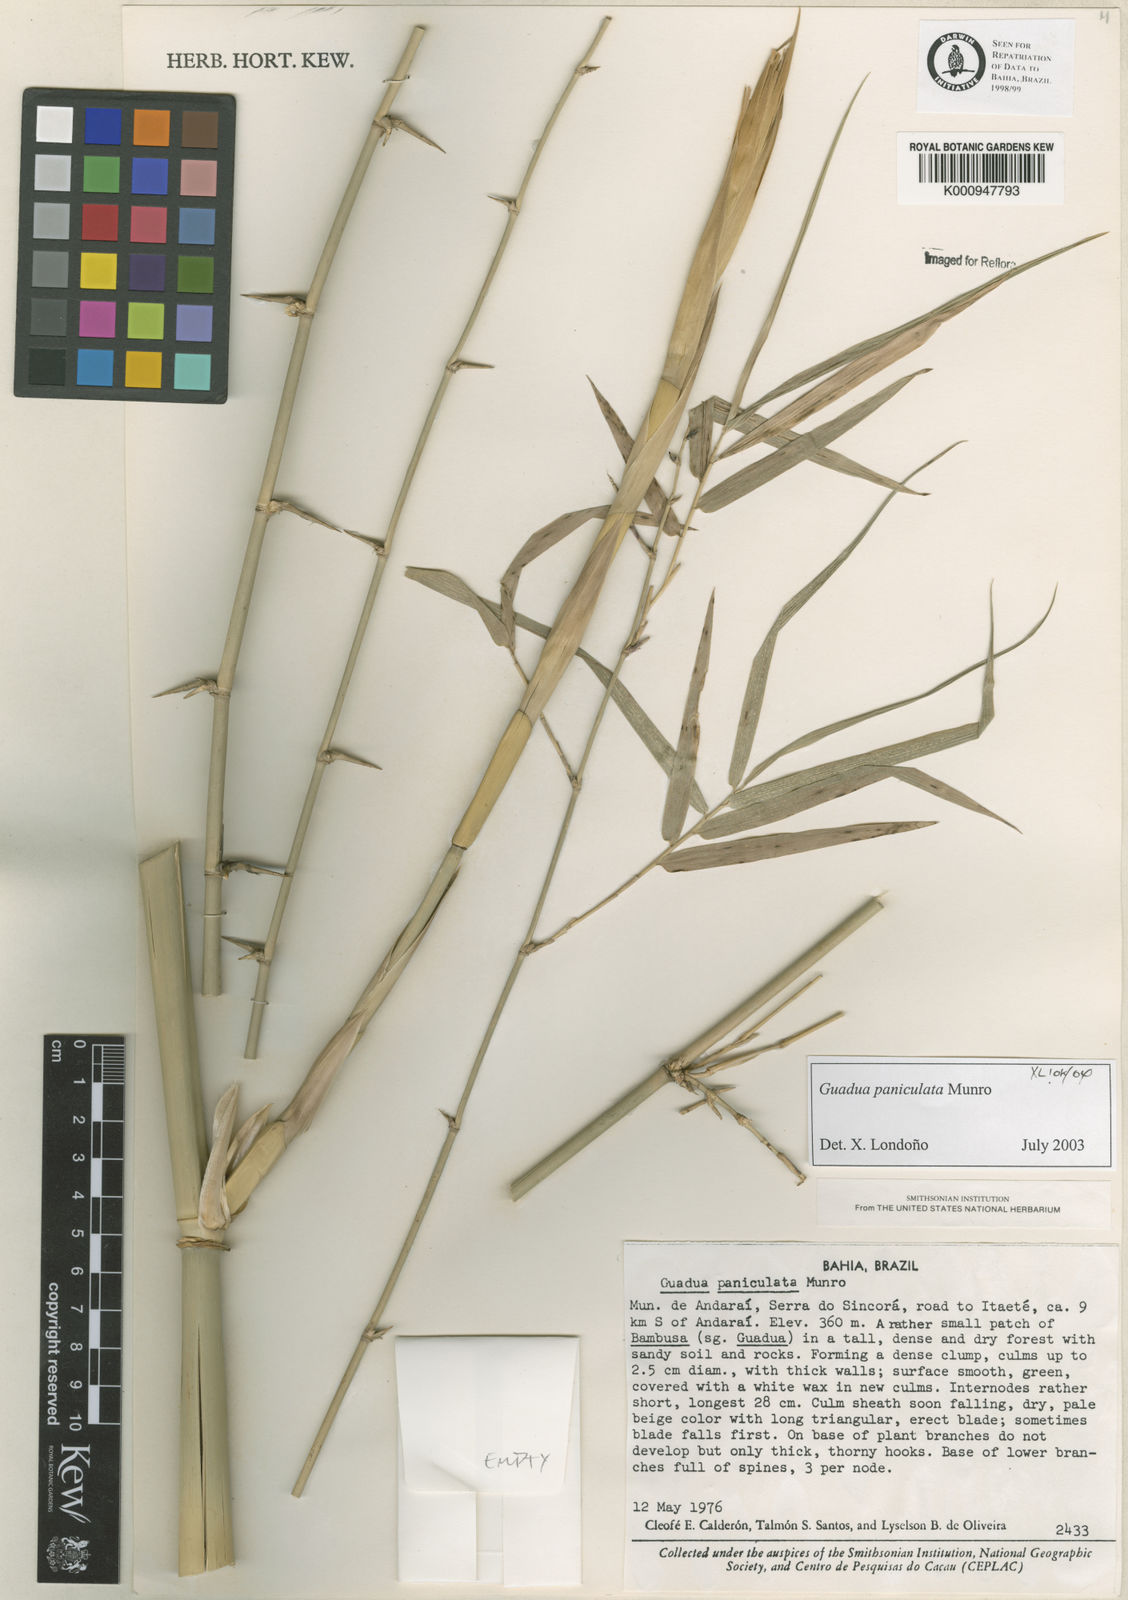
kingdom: Plantae
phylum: Tracheophyta
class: Liliopsida
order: Poales
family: Poaceae
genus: Guadua
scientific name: Guadua paniculata
